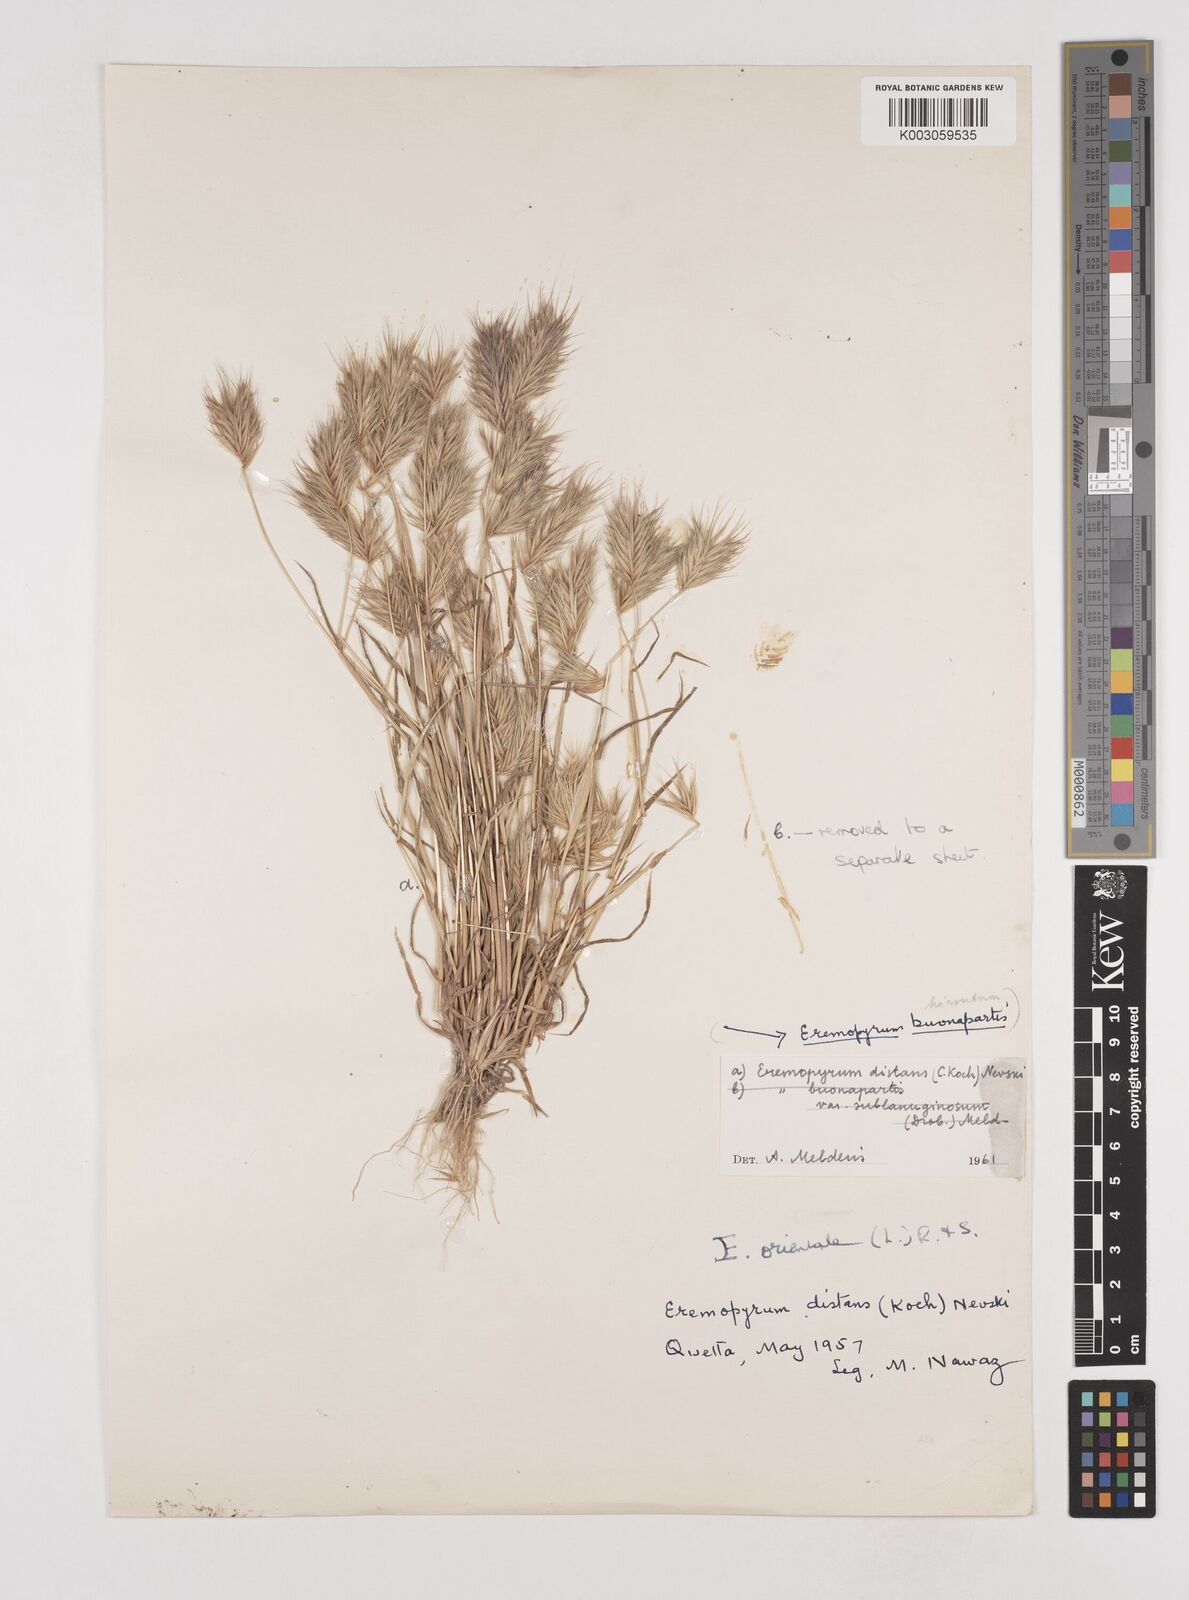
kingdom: Plantae
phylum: Tracheophyta
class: Liliopsida
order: Poales
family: Poaceae
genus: Eremopyrum
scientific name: Eremopyrum distans
